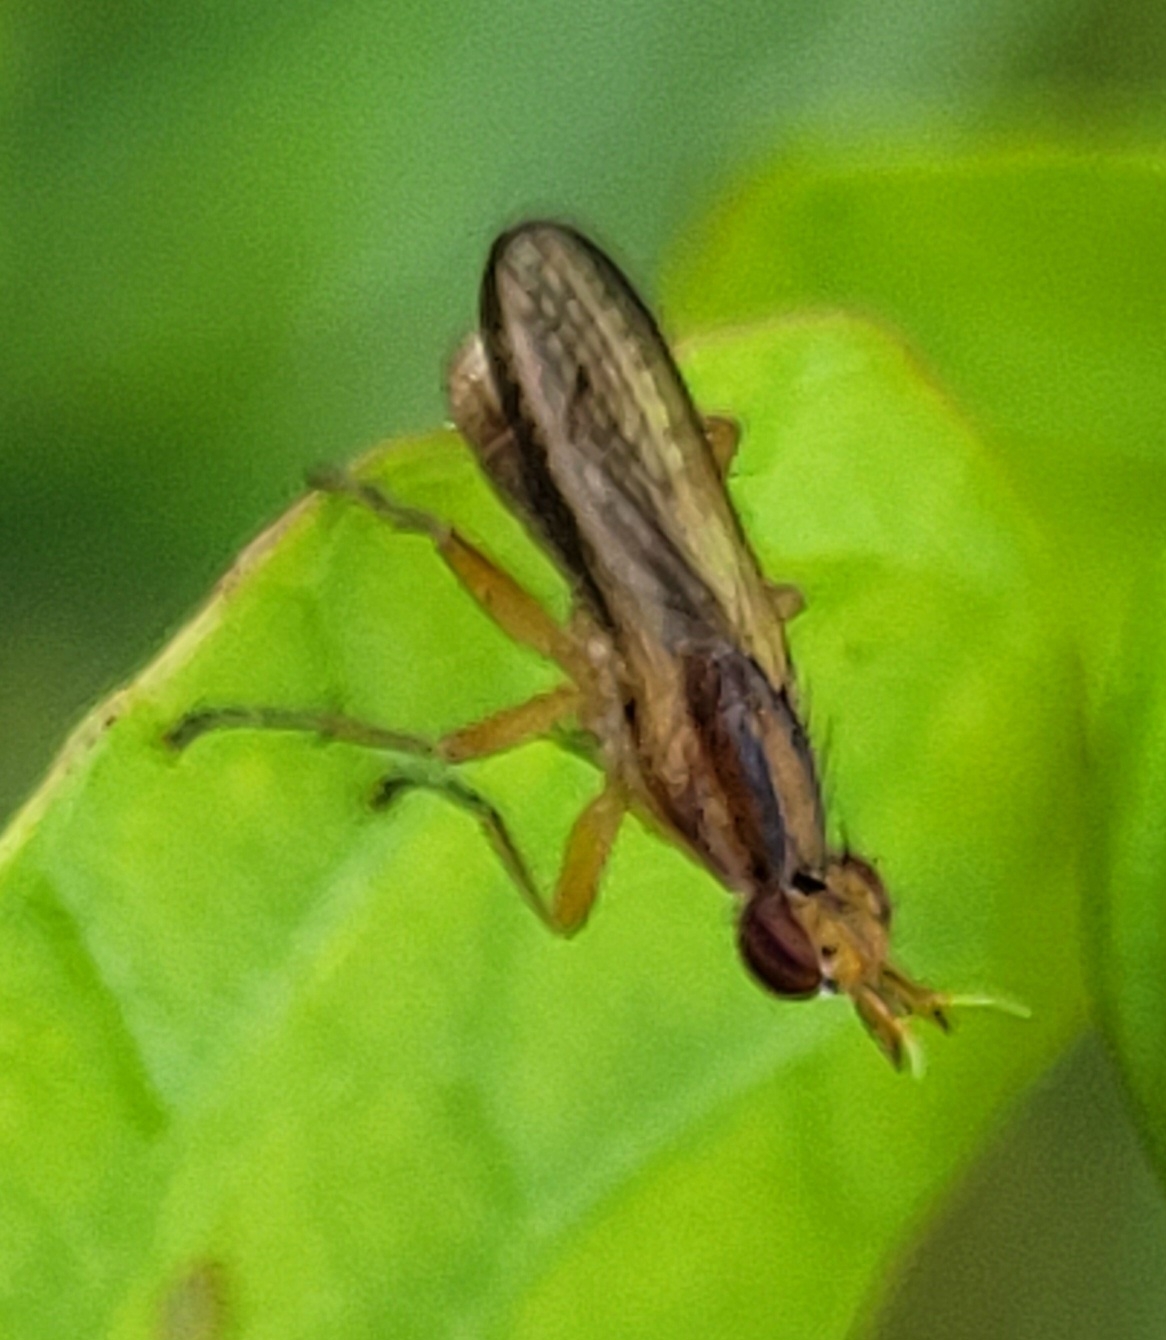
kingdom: Animalia
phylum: Arthropoda
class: Insecta
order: Diptera
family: Sciomyzidae
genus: Limnia
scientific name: Limnia unguicornis
